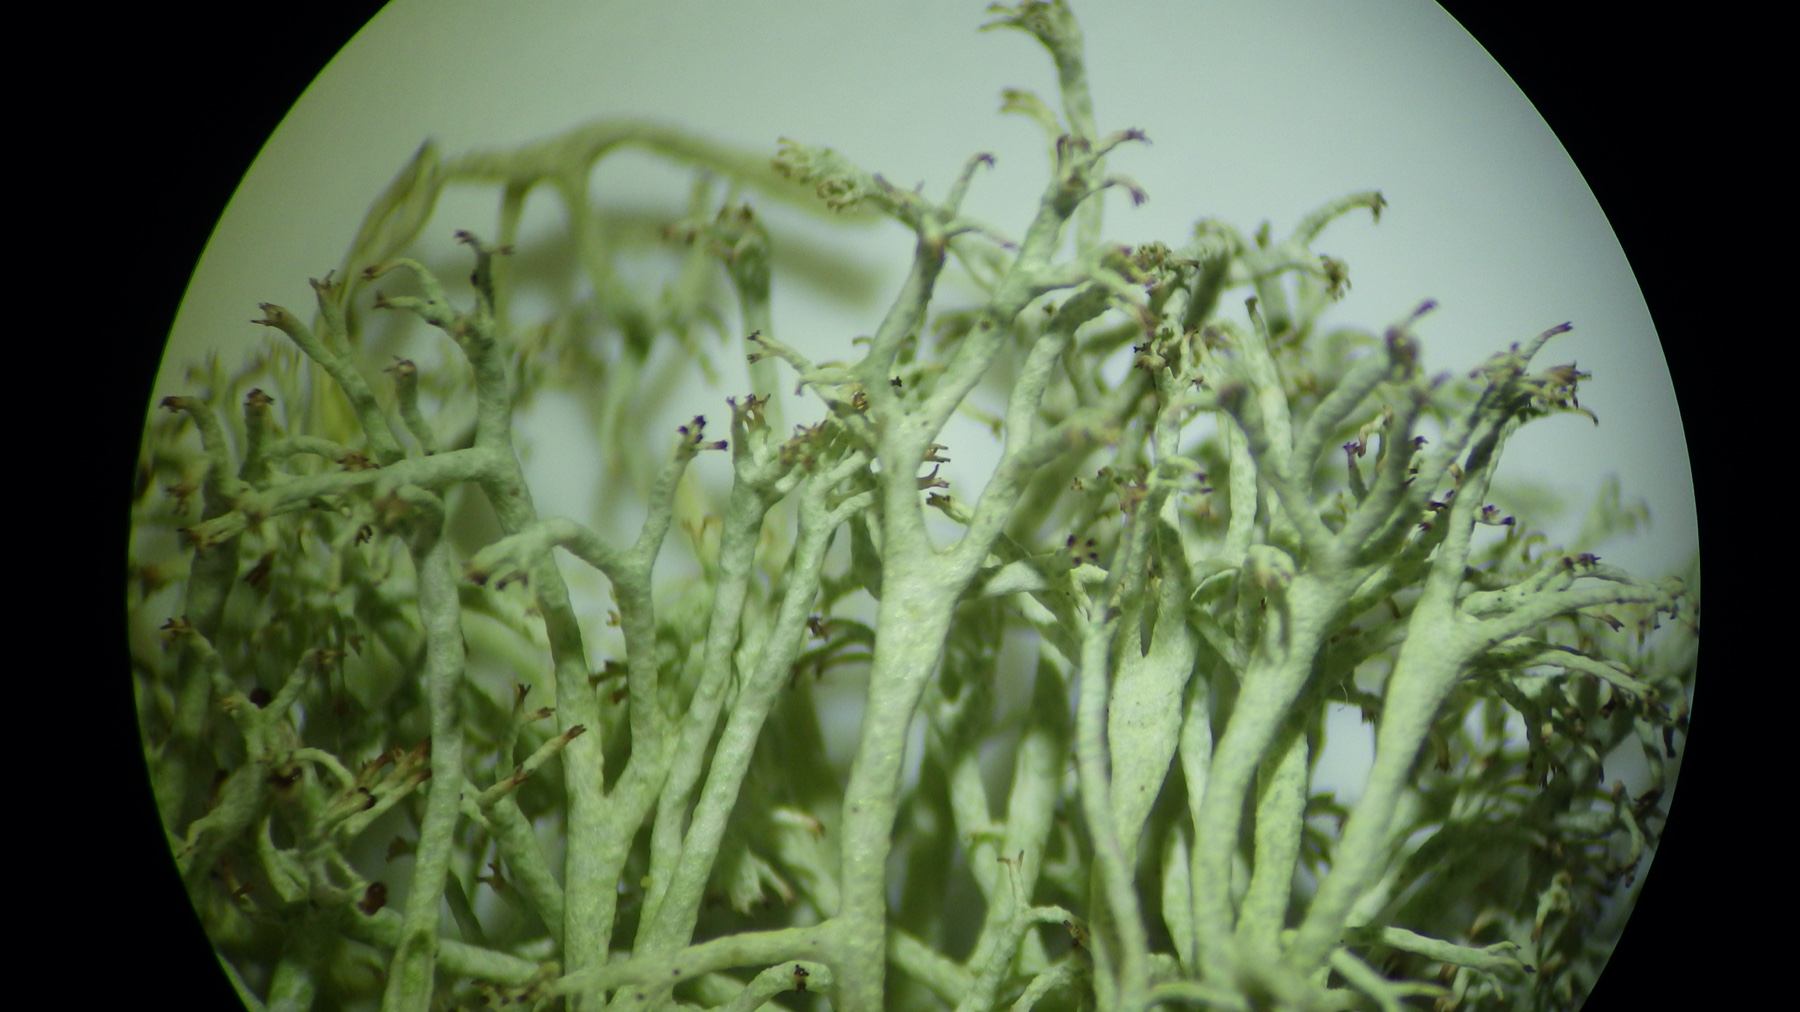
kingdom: Fungi
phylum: Ascomycota
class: Lecanoromycetes
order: Lecanorales
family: Cladoniaceae
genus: Cladonia
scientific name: Cladonia mitis
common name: mild rensdyrlav
